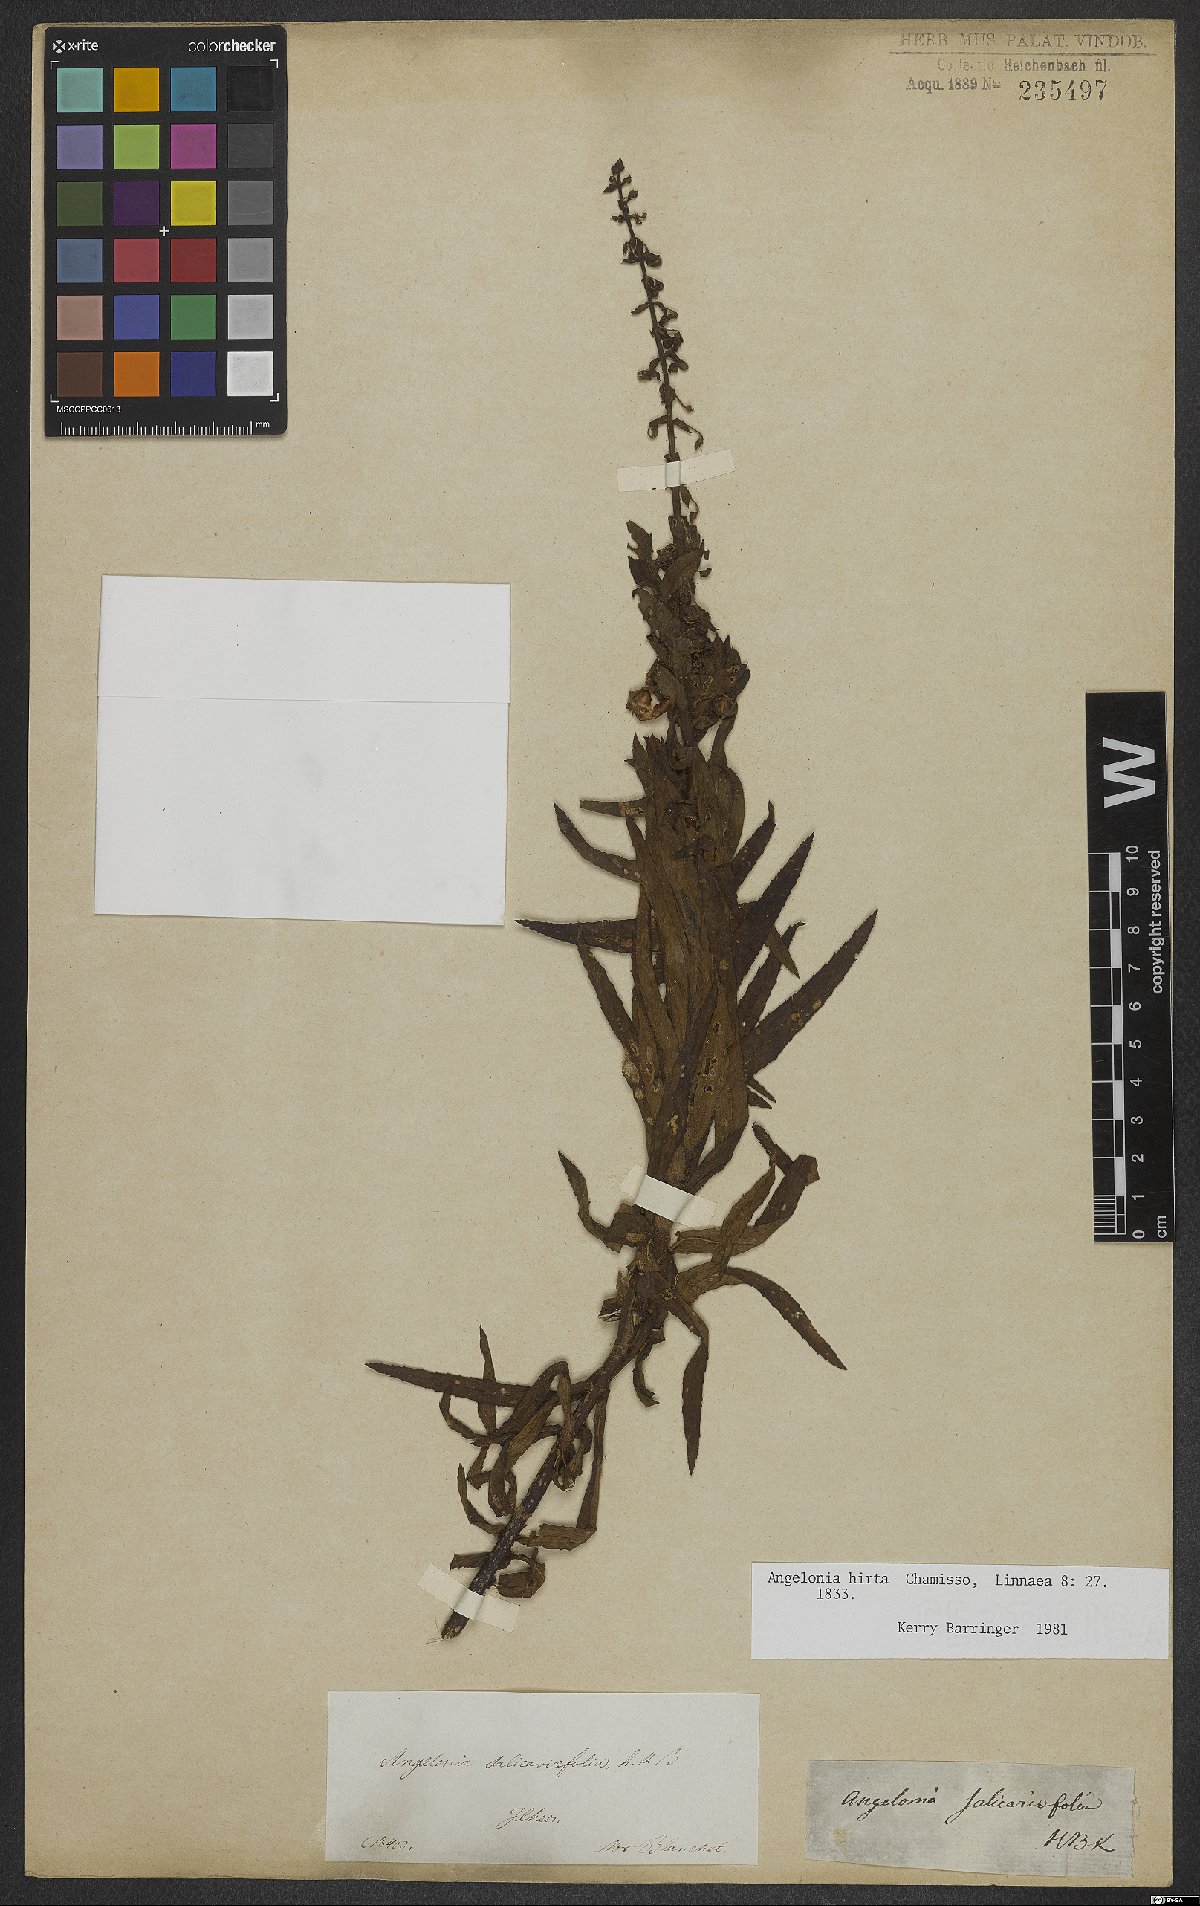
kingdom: Plantae
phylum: Tracheophyta
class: Magnoliopsida
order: Lamiales
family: Plantaginaceae
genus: Angelonia
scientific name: Angelonia salicariifolia
